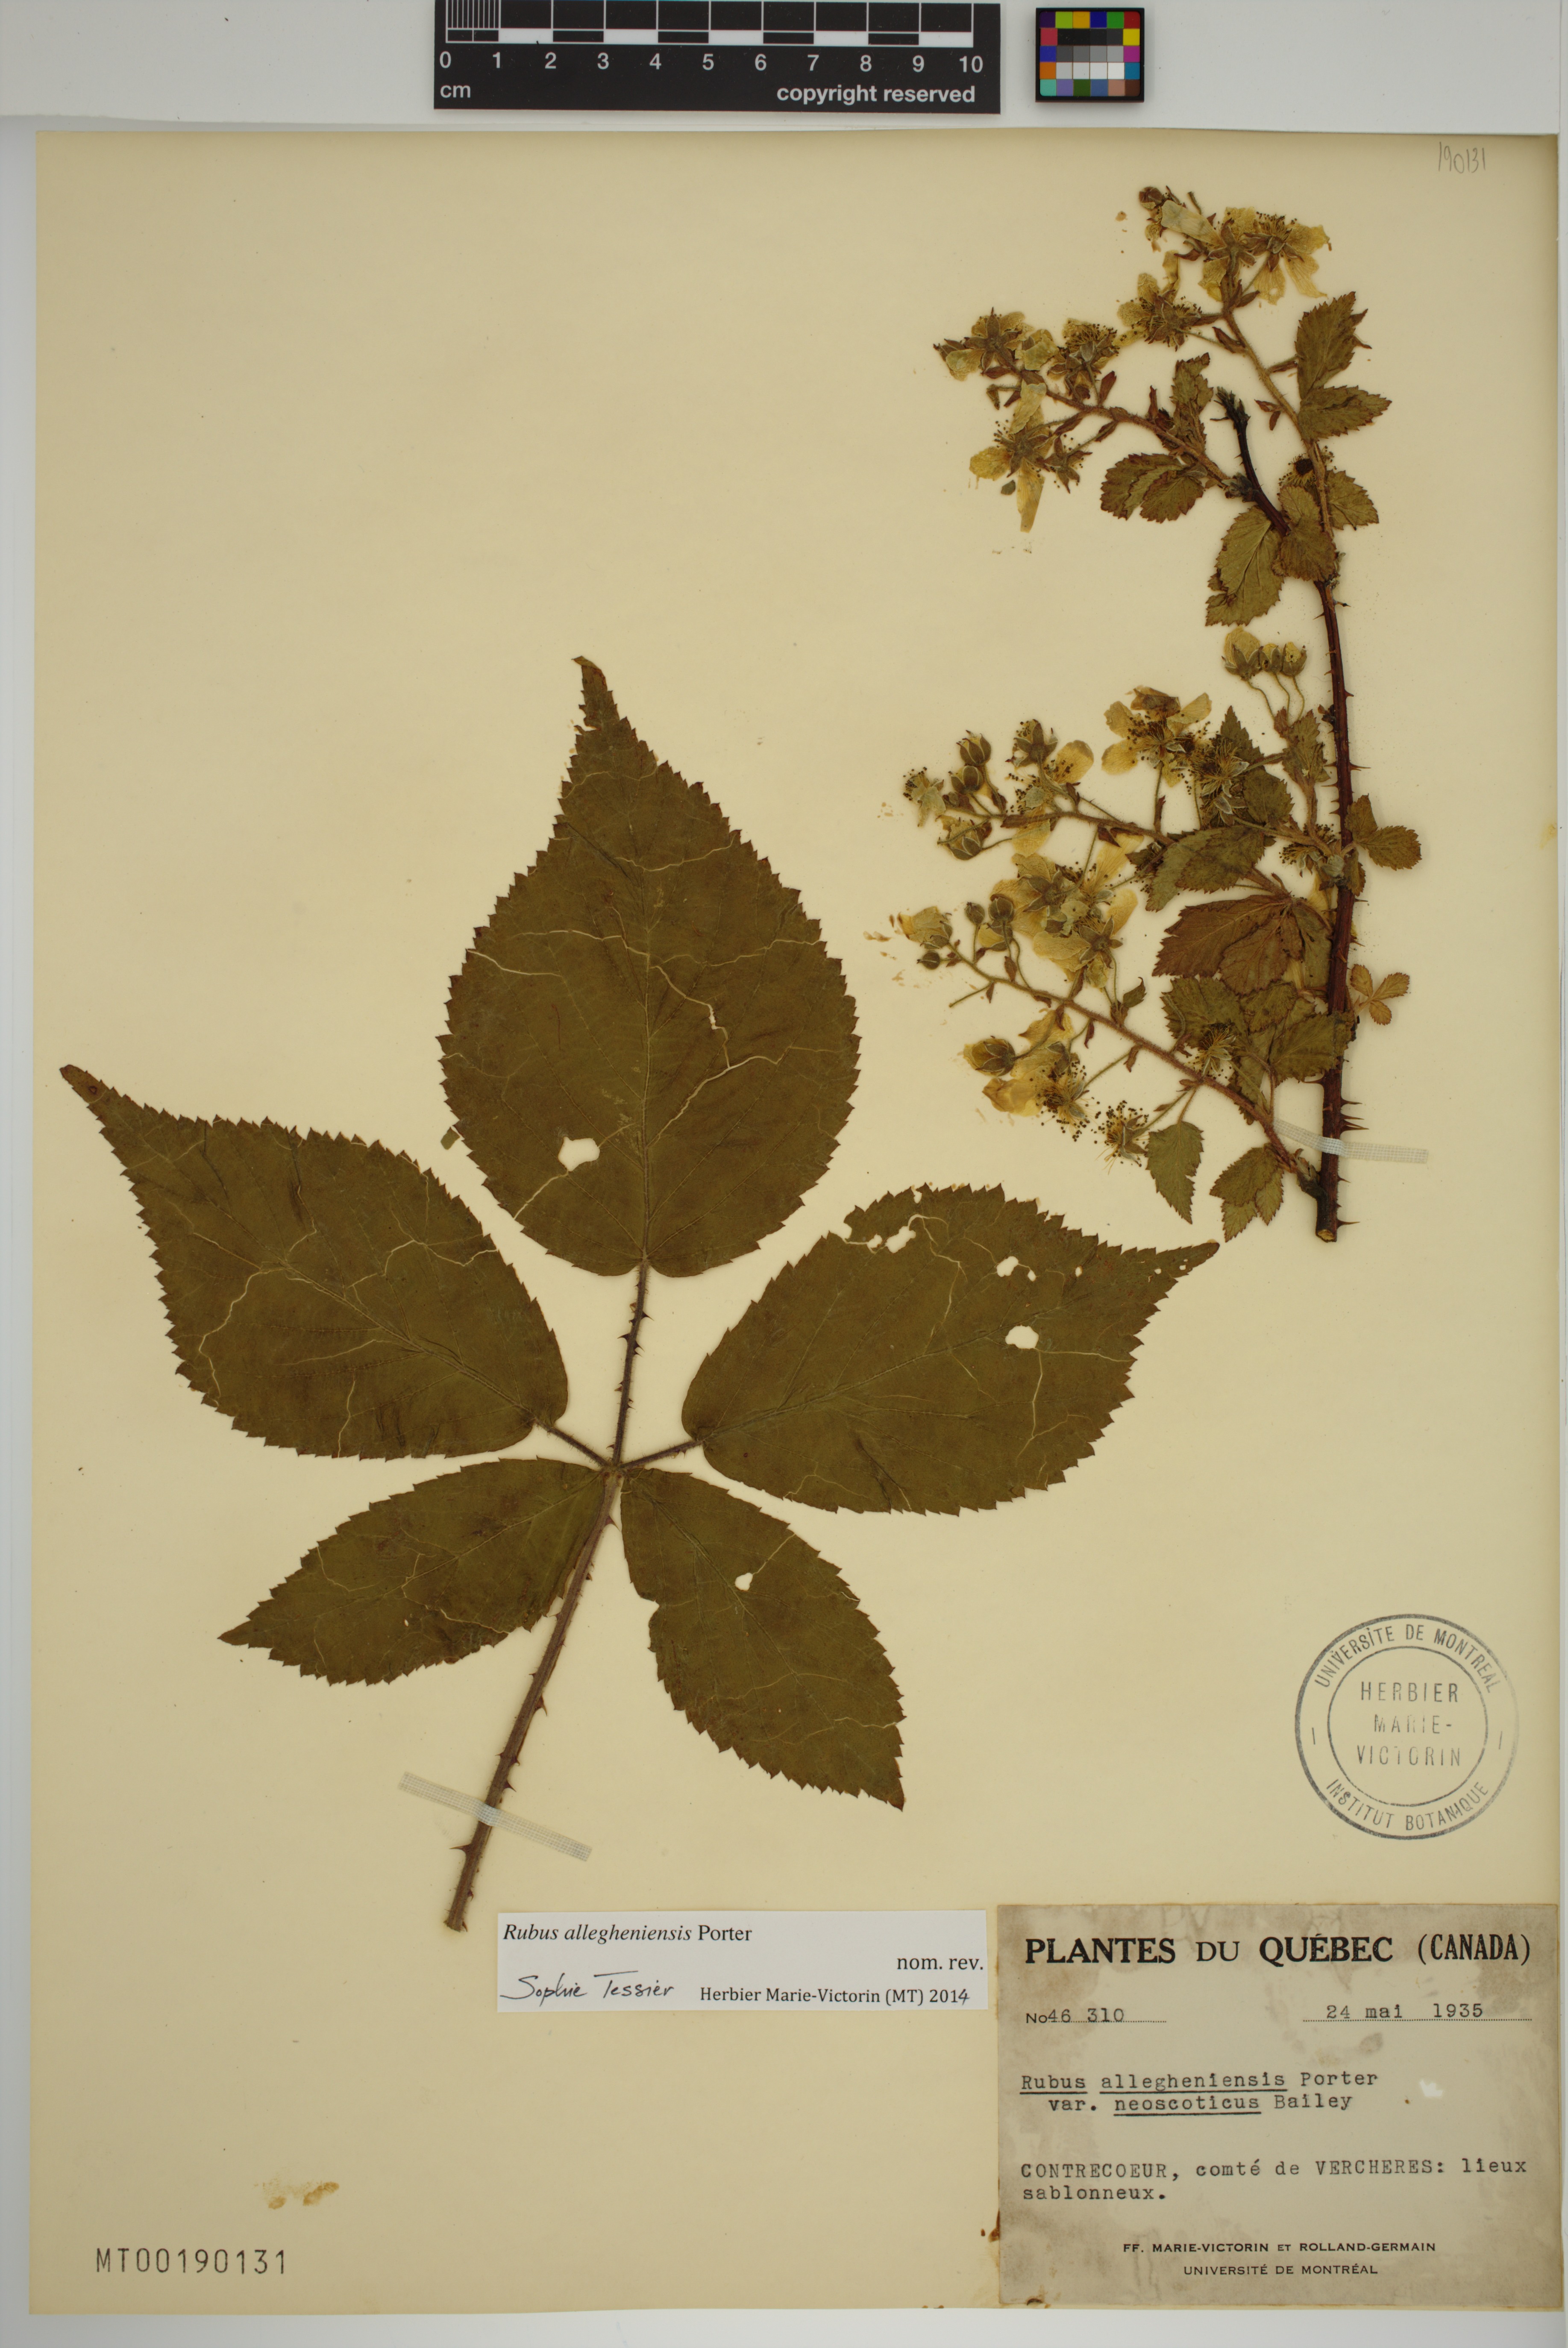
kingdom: Plantae
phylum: Tracheophyta
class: Magnoliopsida
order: Rosales
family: Rosaceae
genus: Rubus
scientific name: Rubus allegheniensis
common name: Allegheny blackberry
